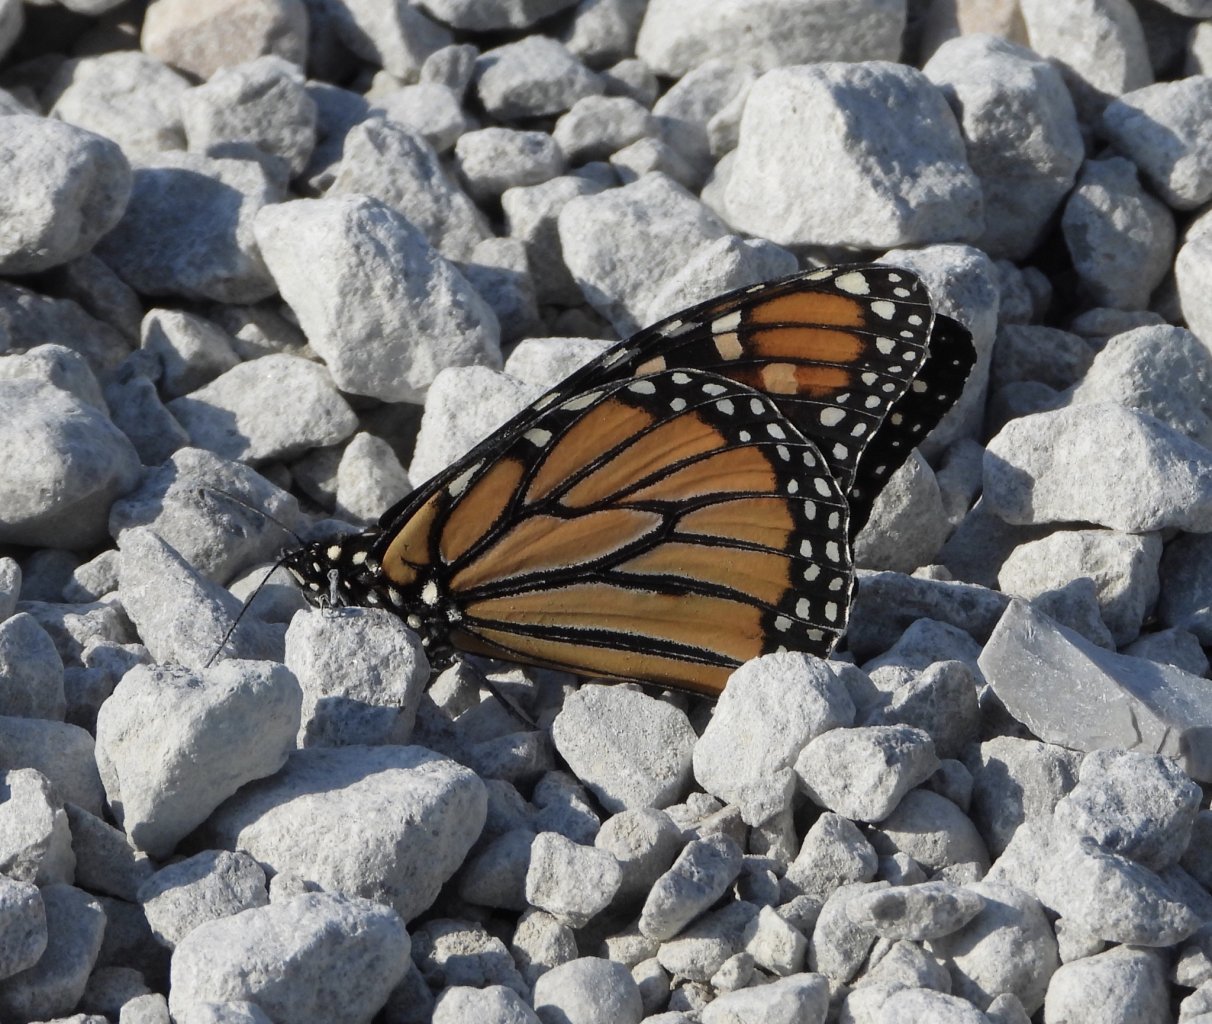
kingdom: Animalia
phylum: Arthropoda
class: Insecta
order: Lepidoptera
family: Nymphalidae
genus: Danaus
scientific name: Danaus plexippus
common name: Monarch
